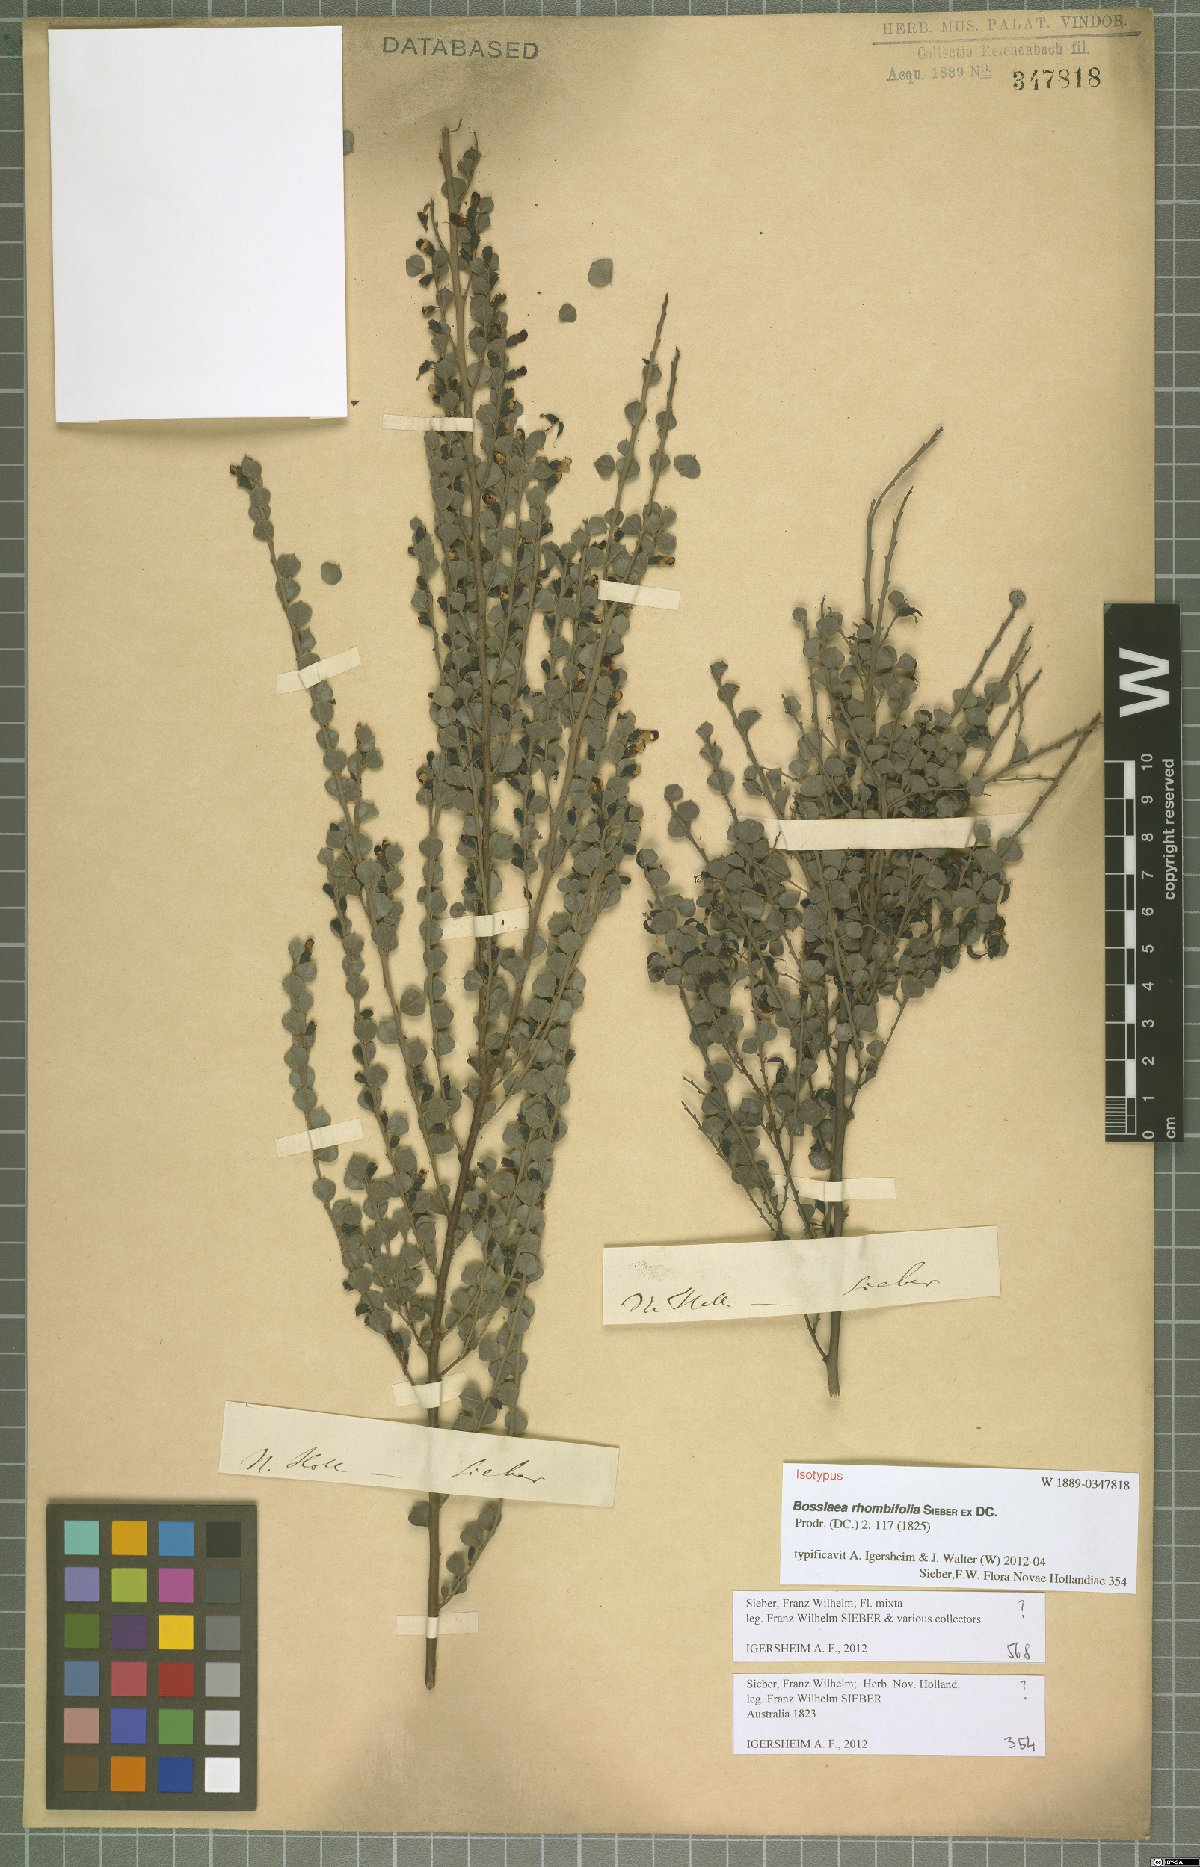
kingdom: Plantae
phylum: Tracheophyta
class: Magnoliopsida
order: Fabales
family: Fabaceae
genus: Bossiaea
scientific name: Bossiaea rhombifolia
